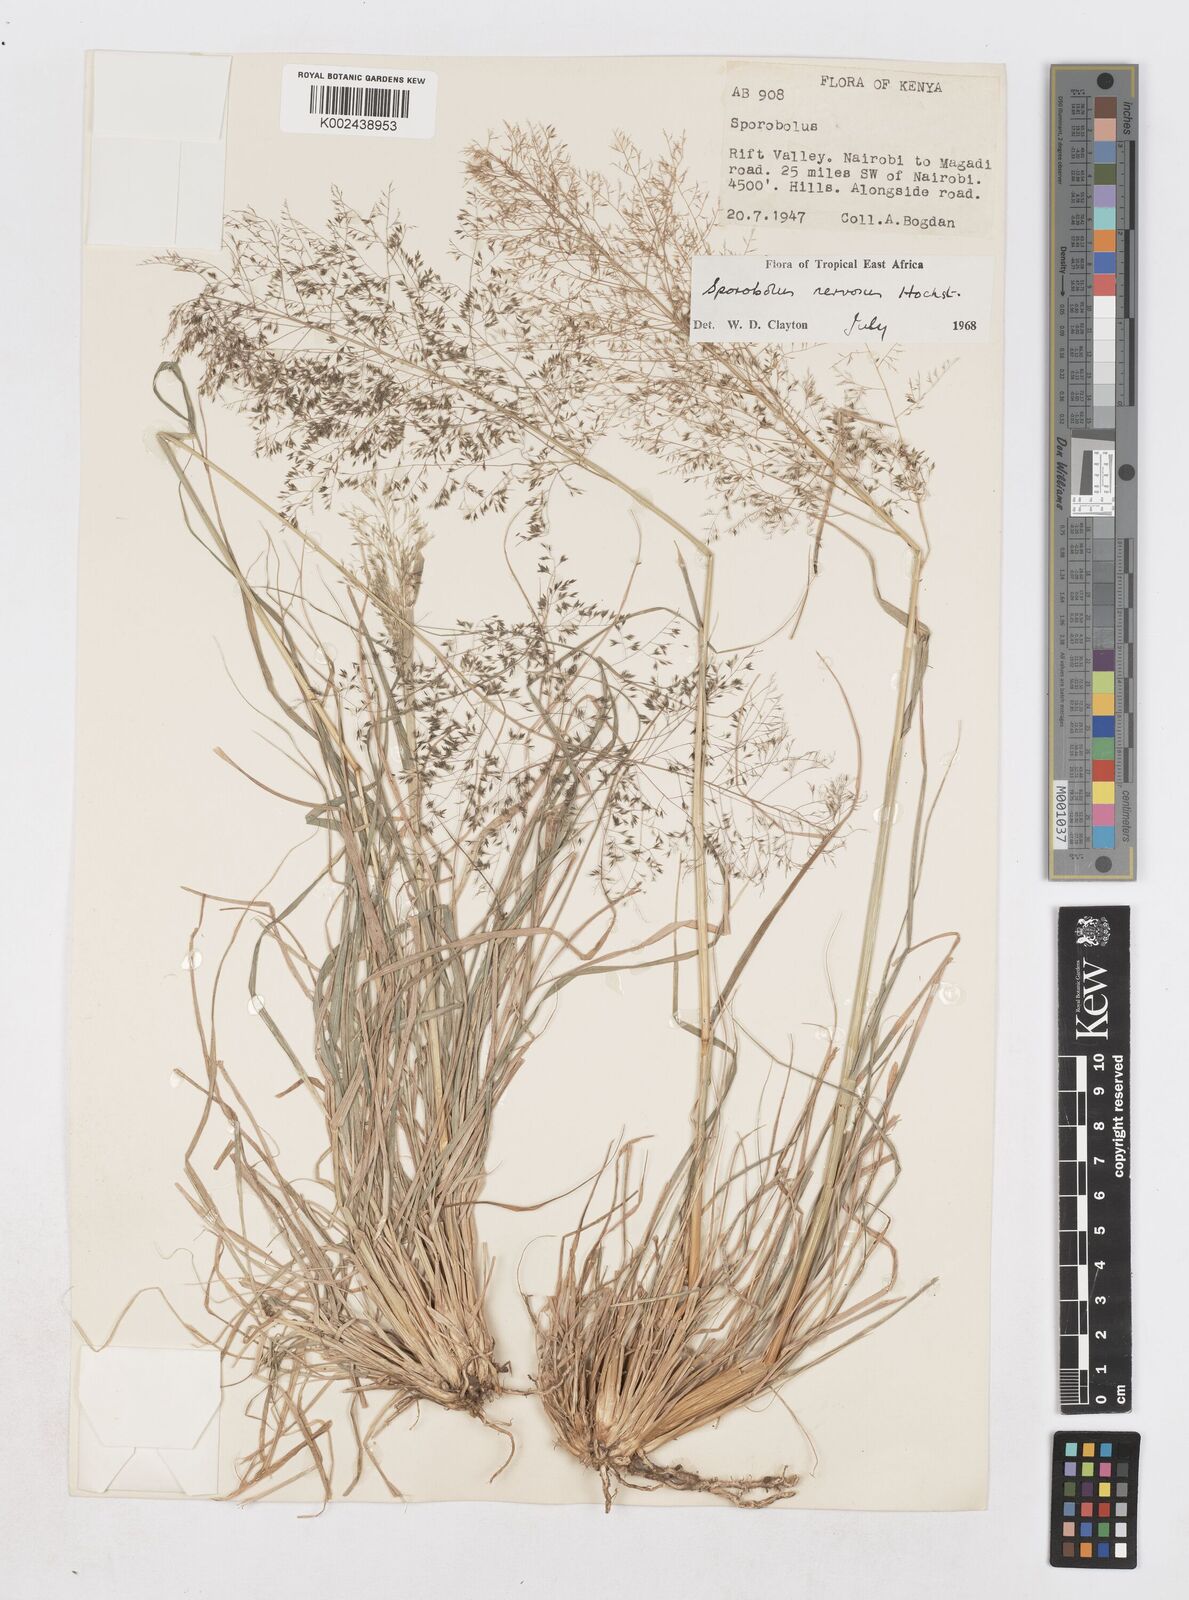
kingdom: Plantae
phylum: Tracheophyta
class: Liliopsida
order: Poales
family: Poaceae
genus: Sporobolus
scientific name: Sporobolus nervosus
